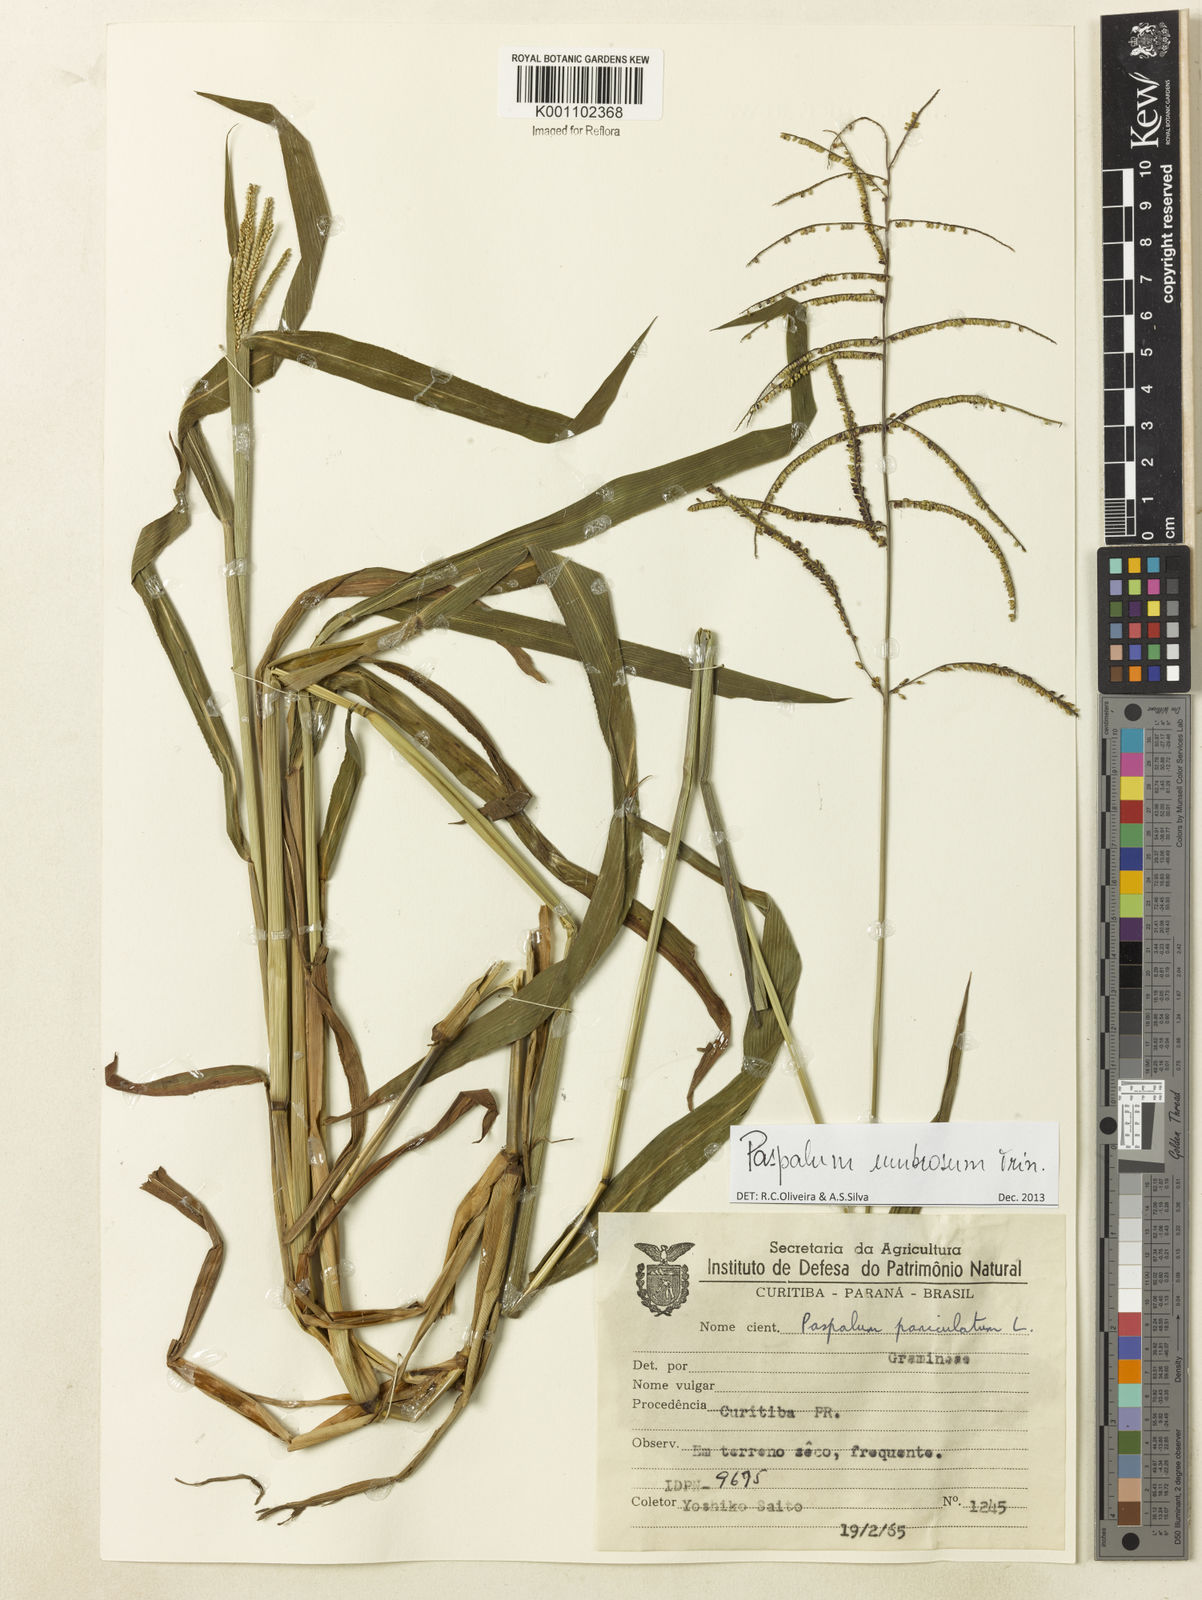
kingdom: Plantae
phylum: Tracheophyta
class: Liliopsida
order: Poales
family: Poaceae
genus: Paspalum
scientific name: Paspalum umbrosum
